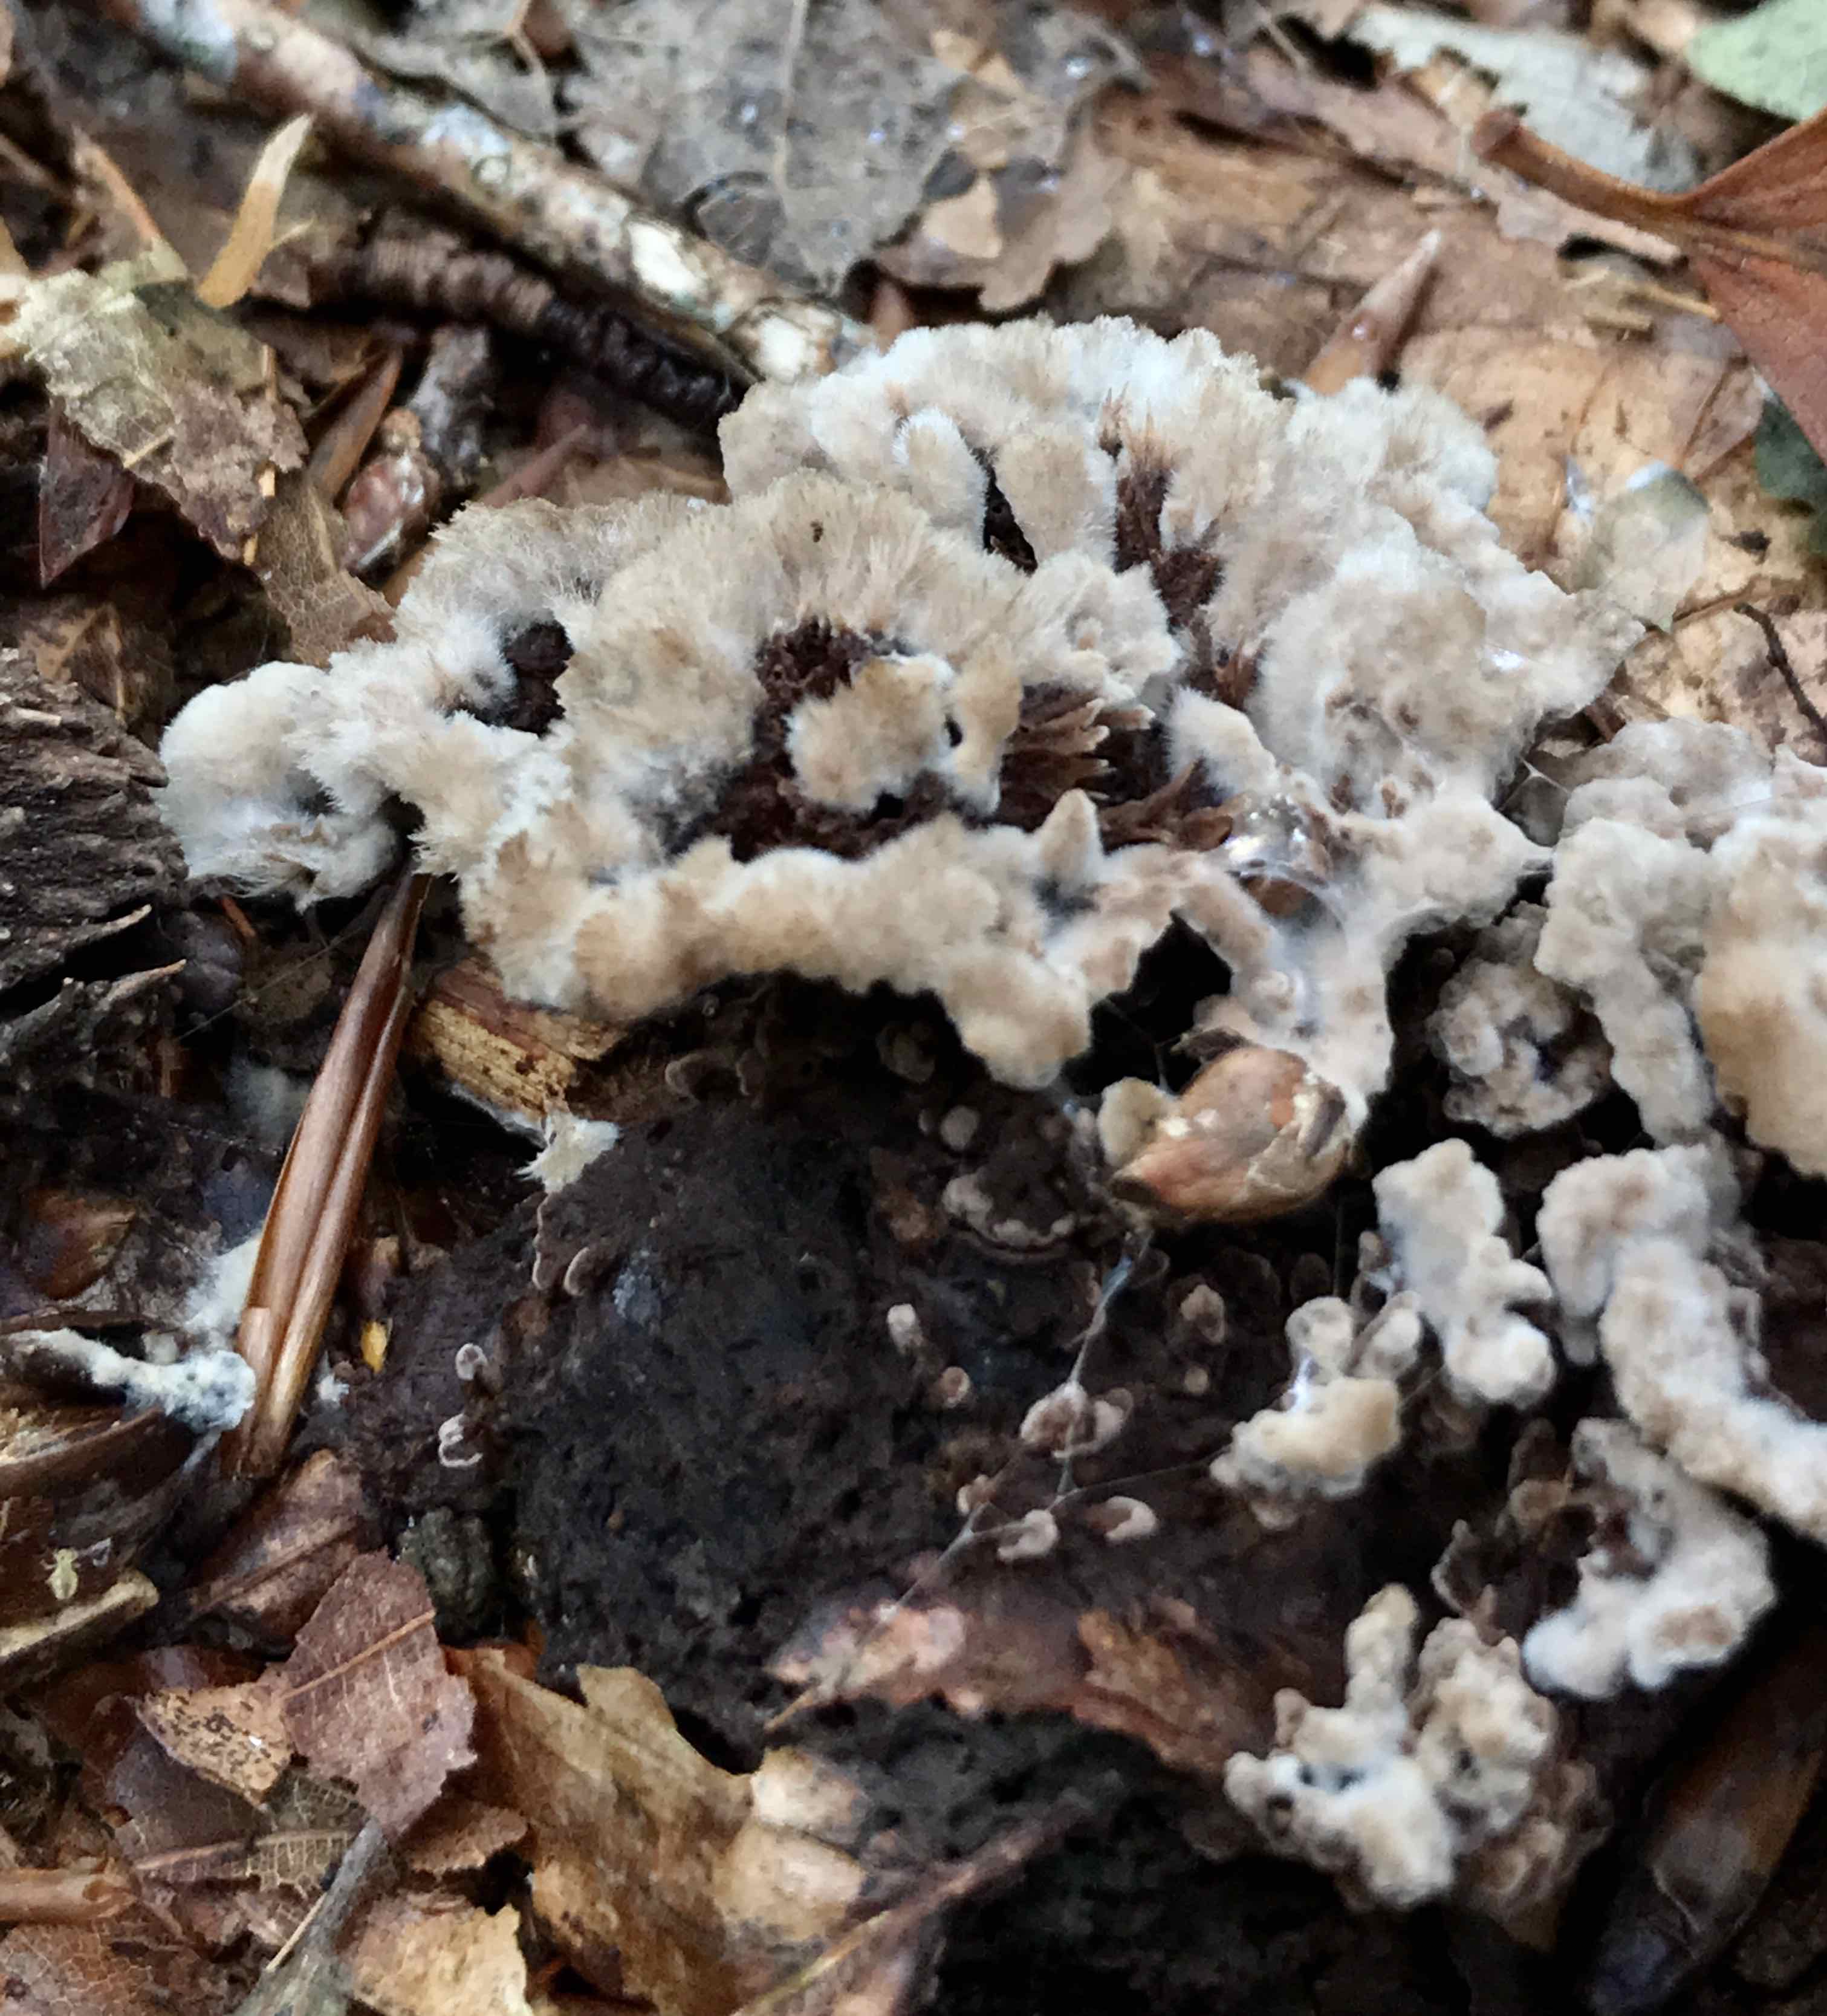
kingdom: Fungi
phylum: Basidiomycota
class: Agaricomycetes
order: Thelephorales
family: Thelephoraceae
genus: Thelephora
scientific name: Thelephora terrestris
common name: fliget frynsesvamp
